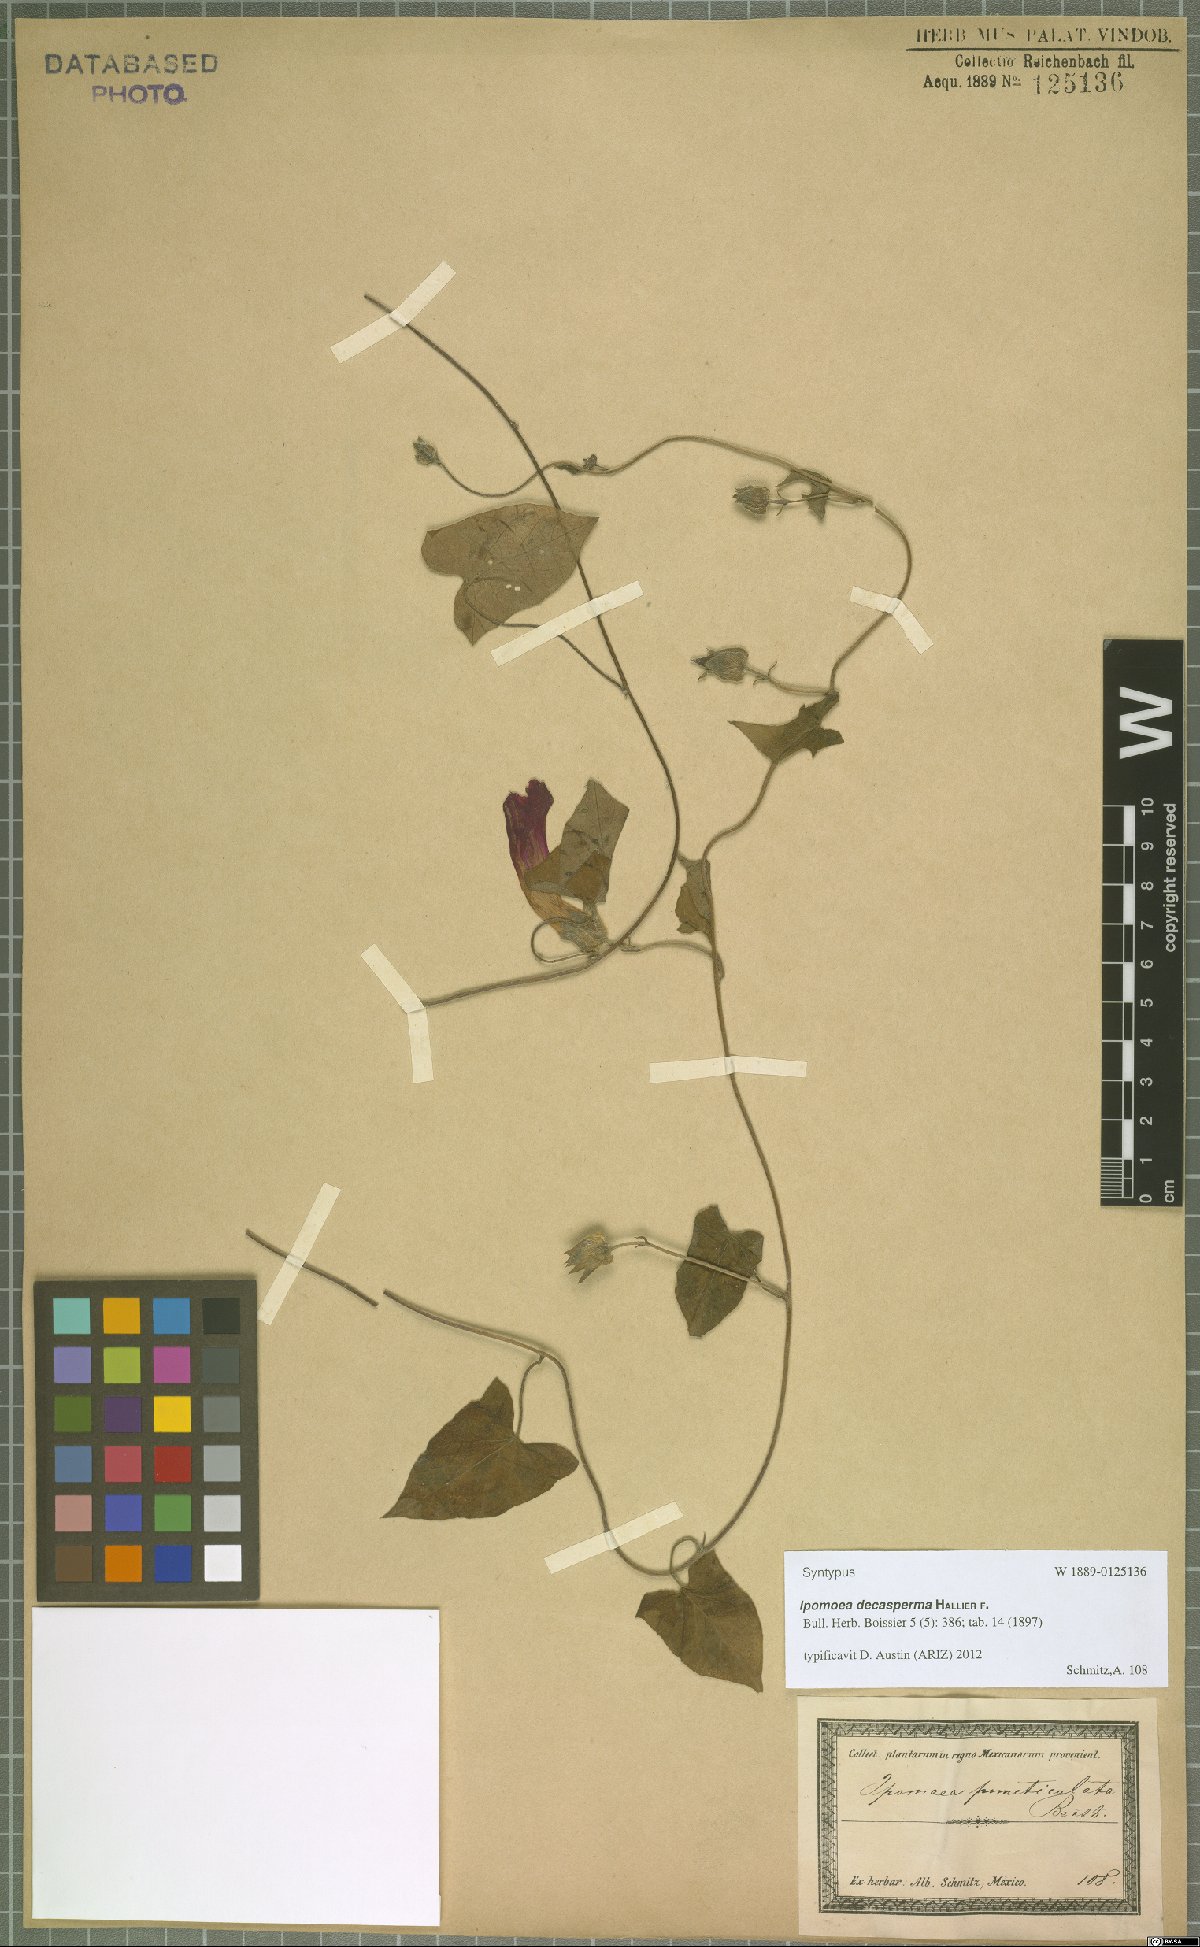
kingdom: Plantae
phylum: Tracheophyta
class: Magnoliopsida
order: Solanales
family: Convolvulaceae
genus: Ipomoea
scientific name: Ipomoea decasperma
